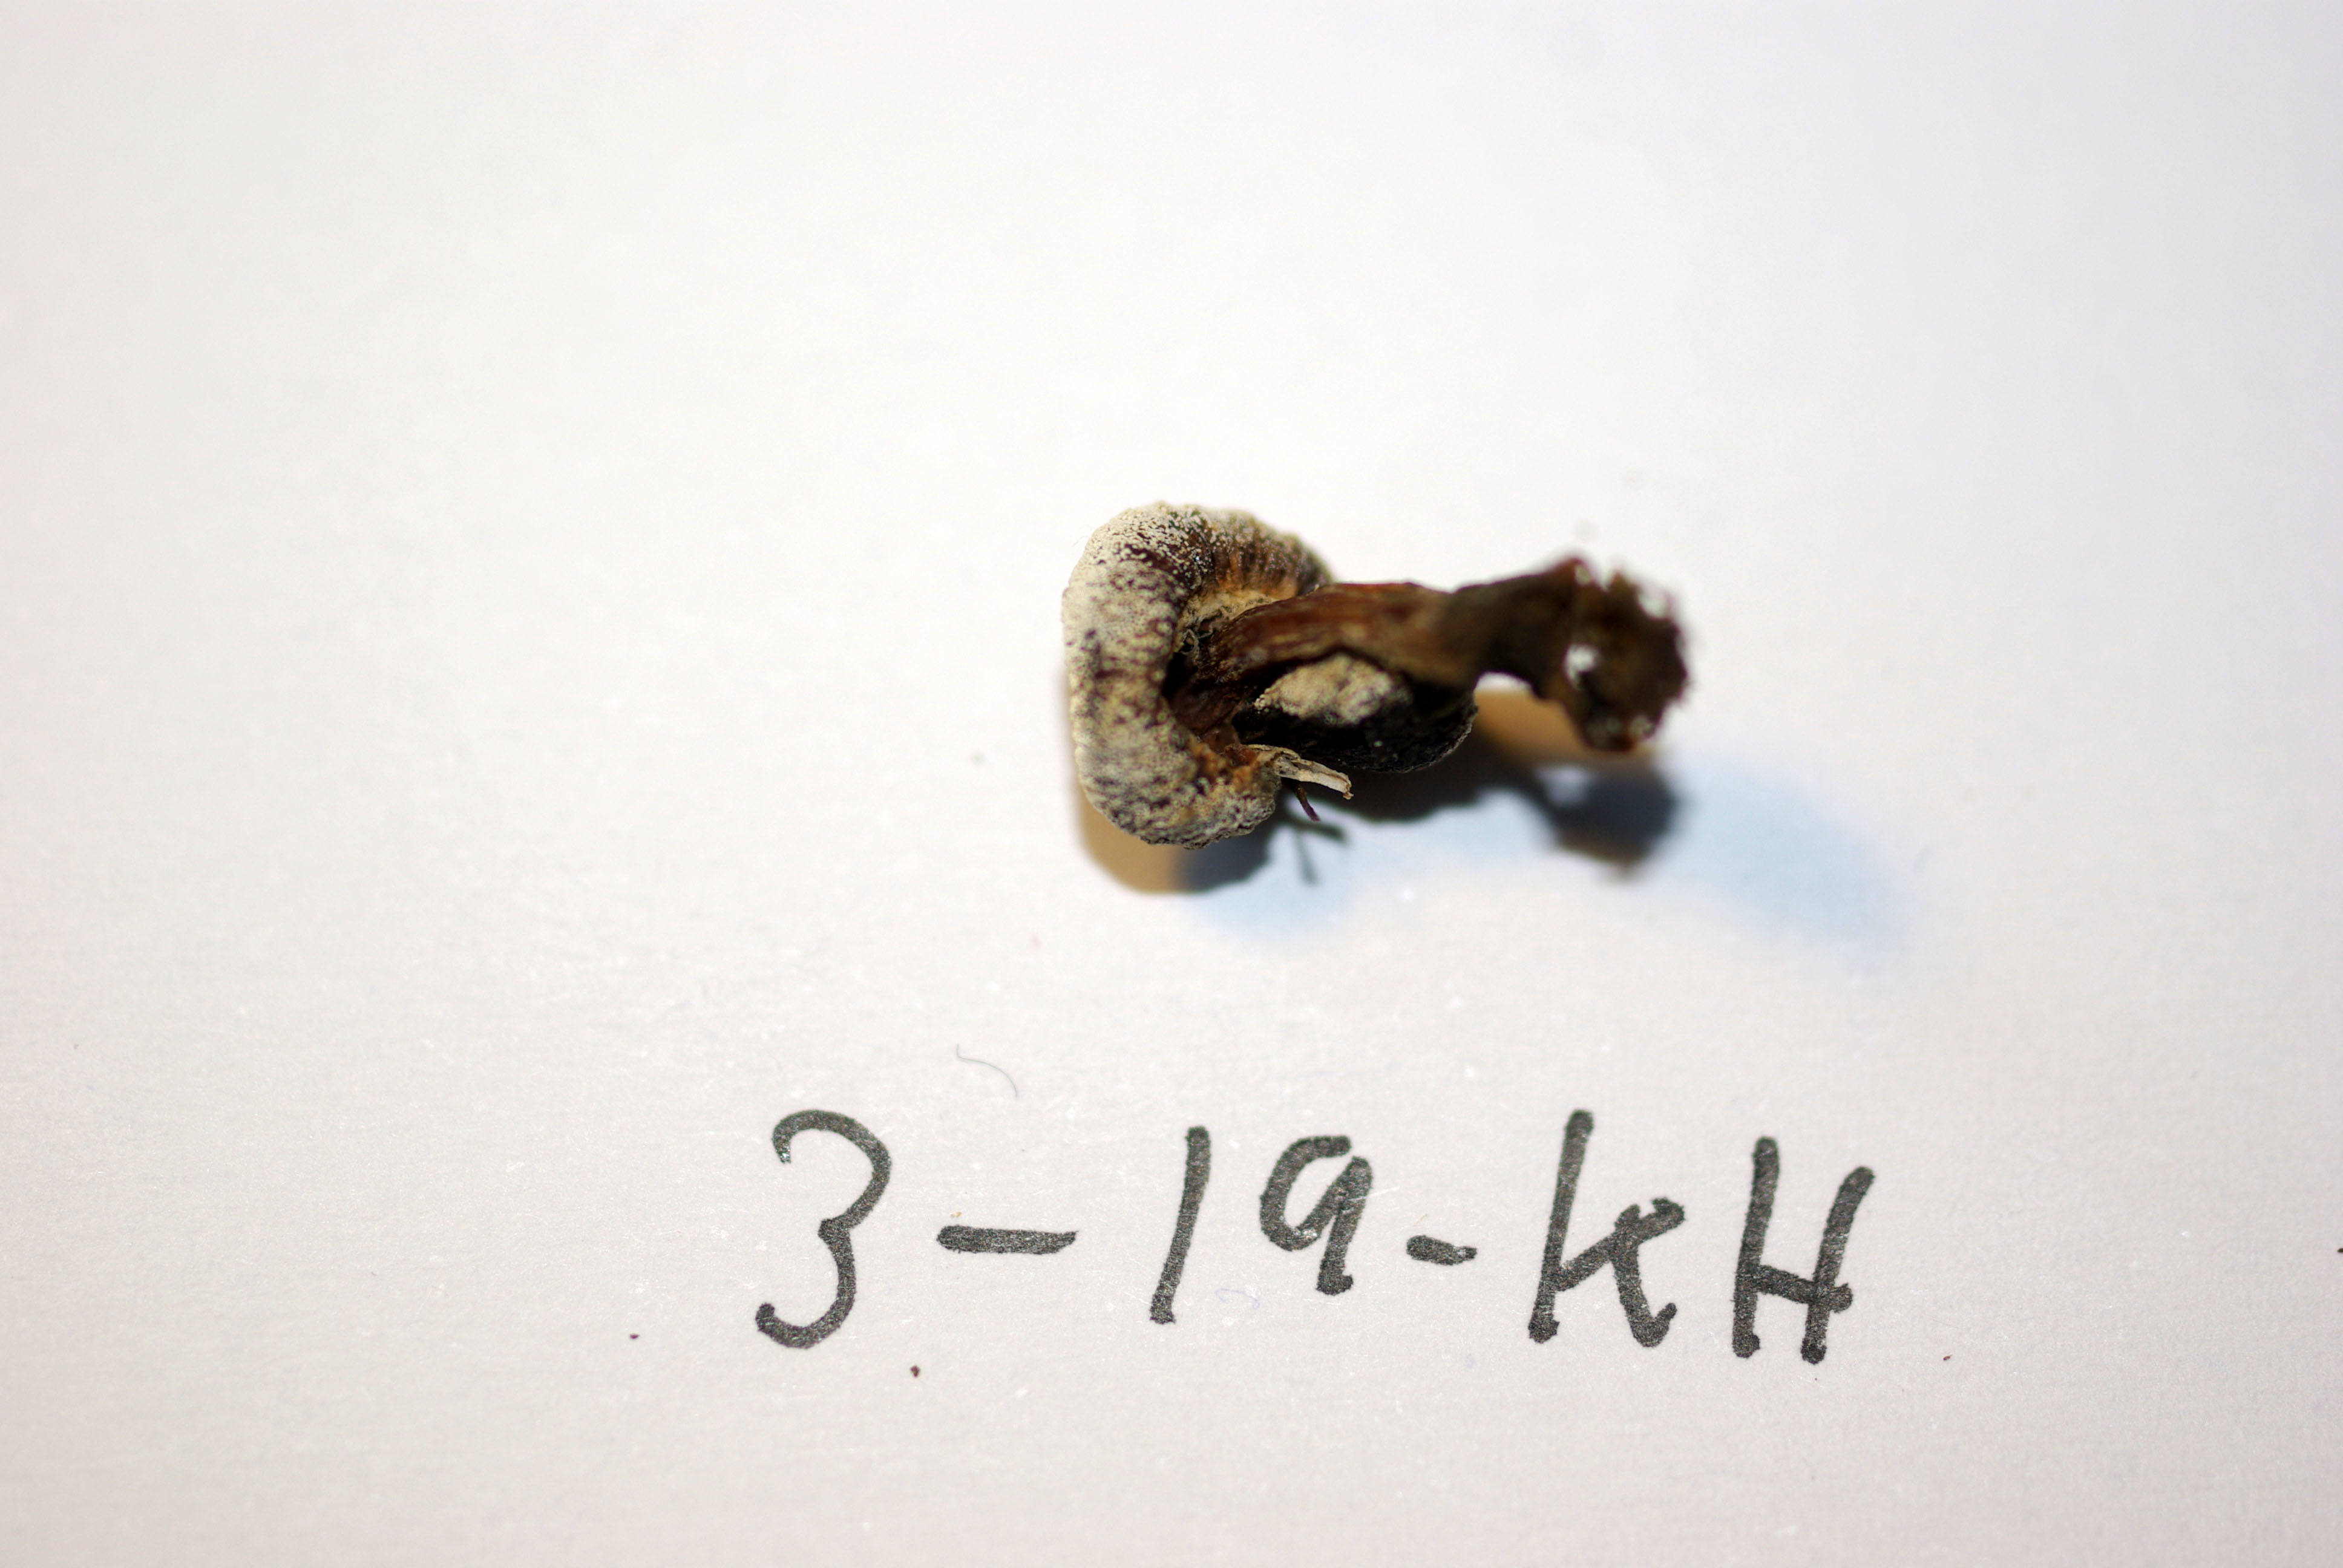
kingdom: Fungi
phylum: Basidiomycota
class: Agaricomycetes
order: Agaricales
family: Cortinariaceae
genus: Cortinarius
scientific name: Cortinarius casimirii
